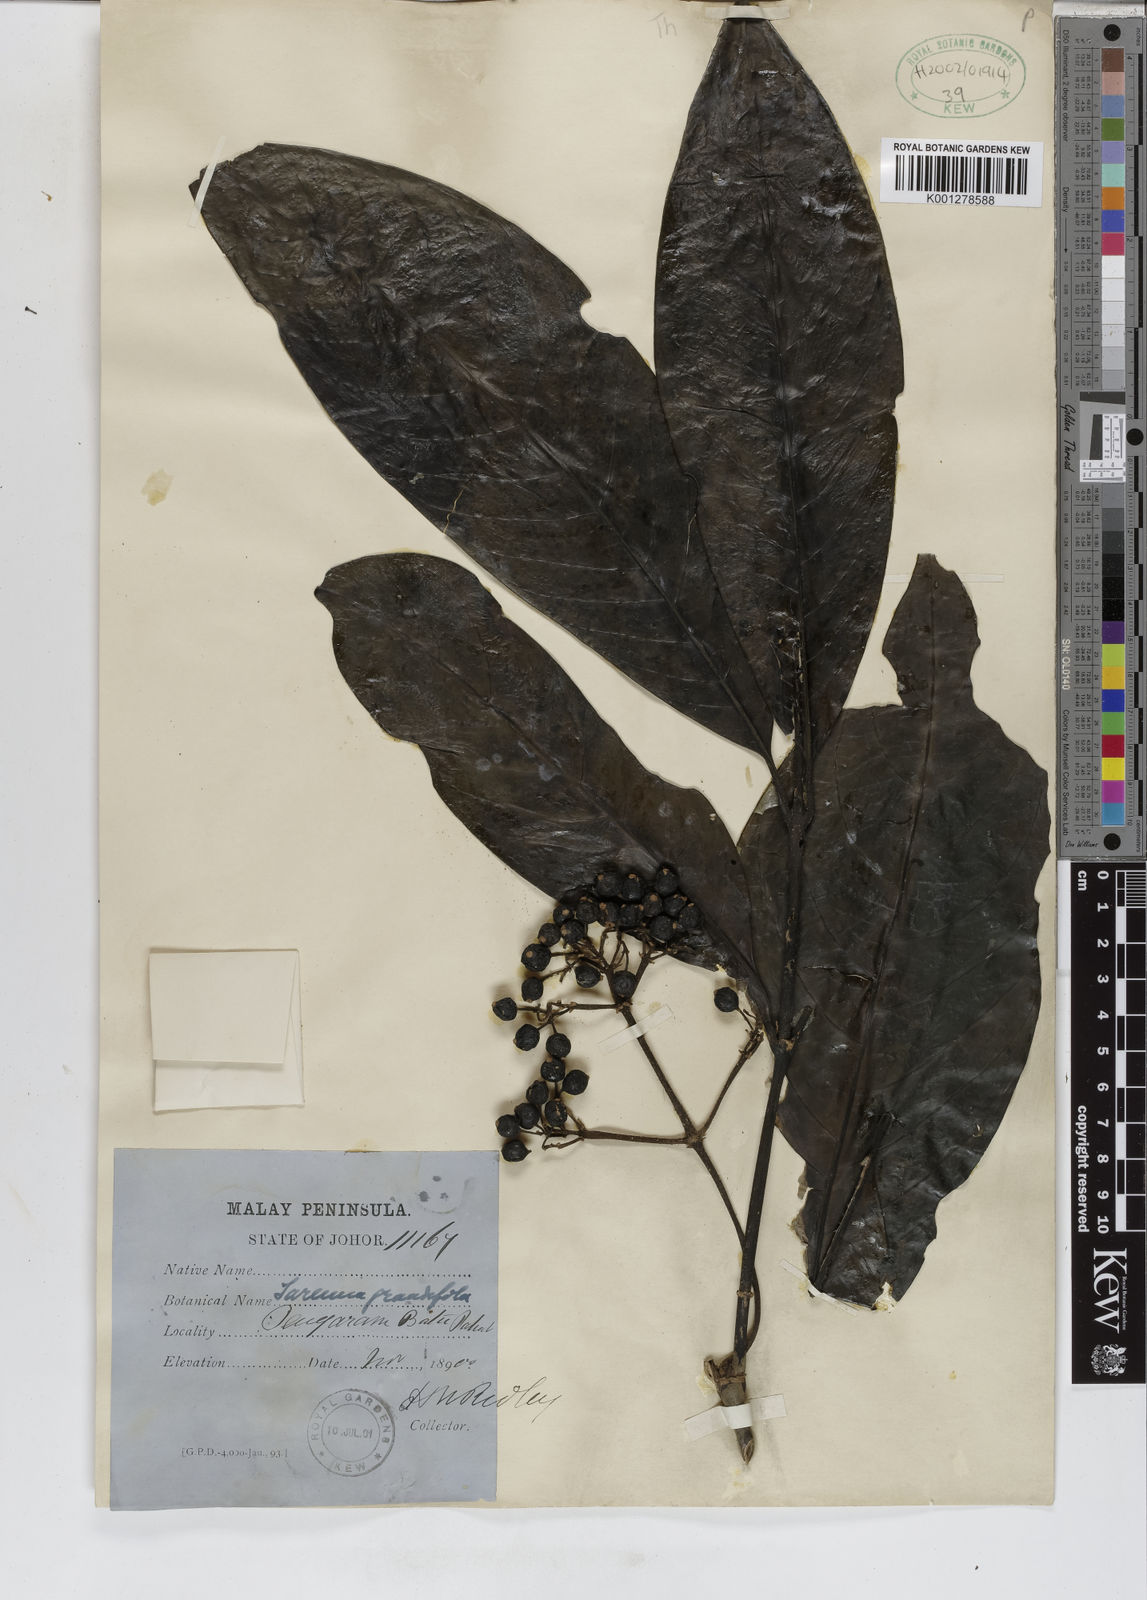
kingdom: Plantae
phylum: Tracheophyta
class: Magnoliopsida
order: Gentianales
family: Rubiaceae
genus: Tarenna
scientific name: Tarenna odorata
